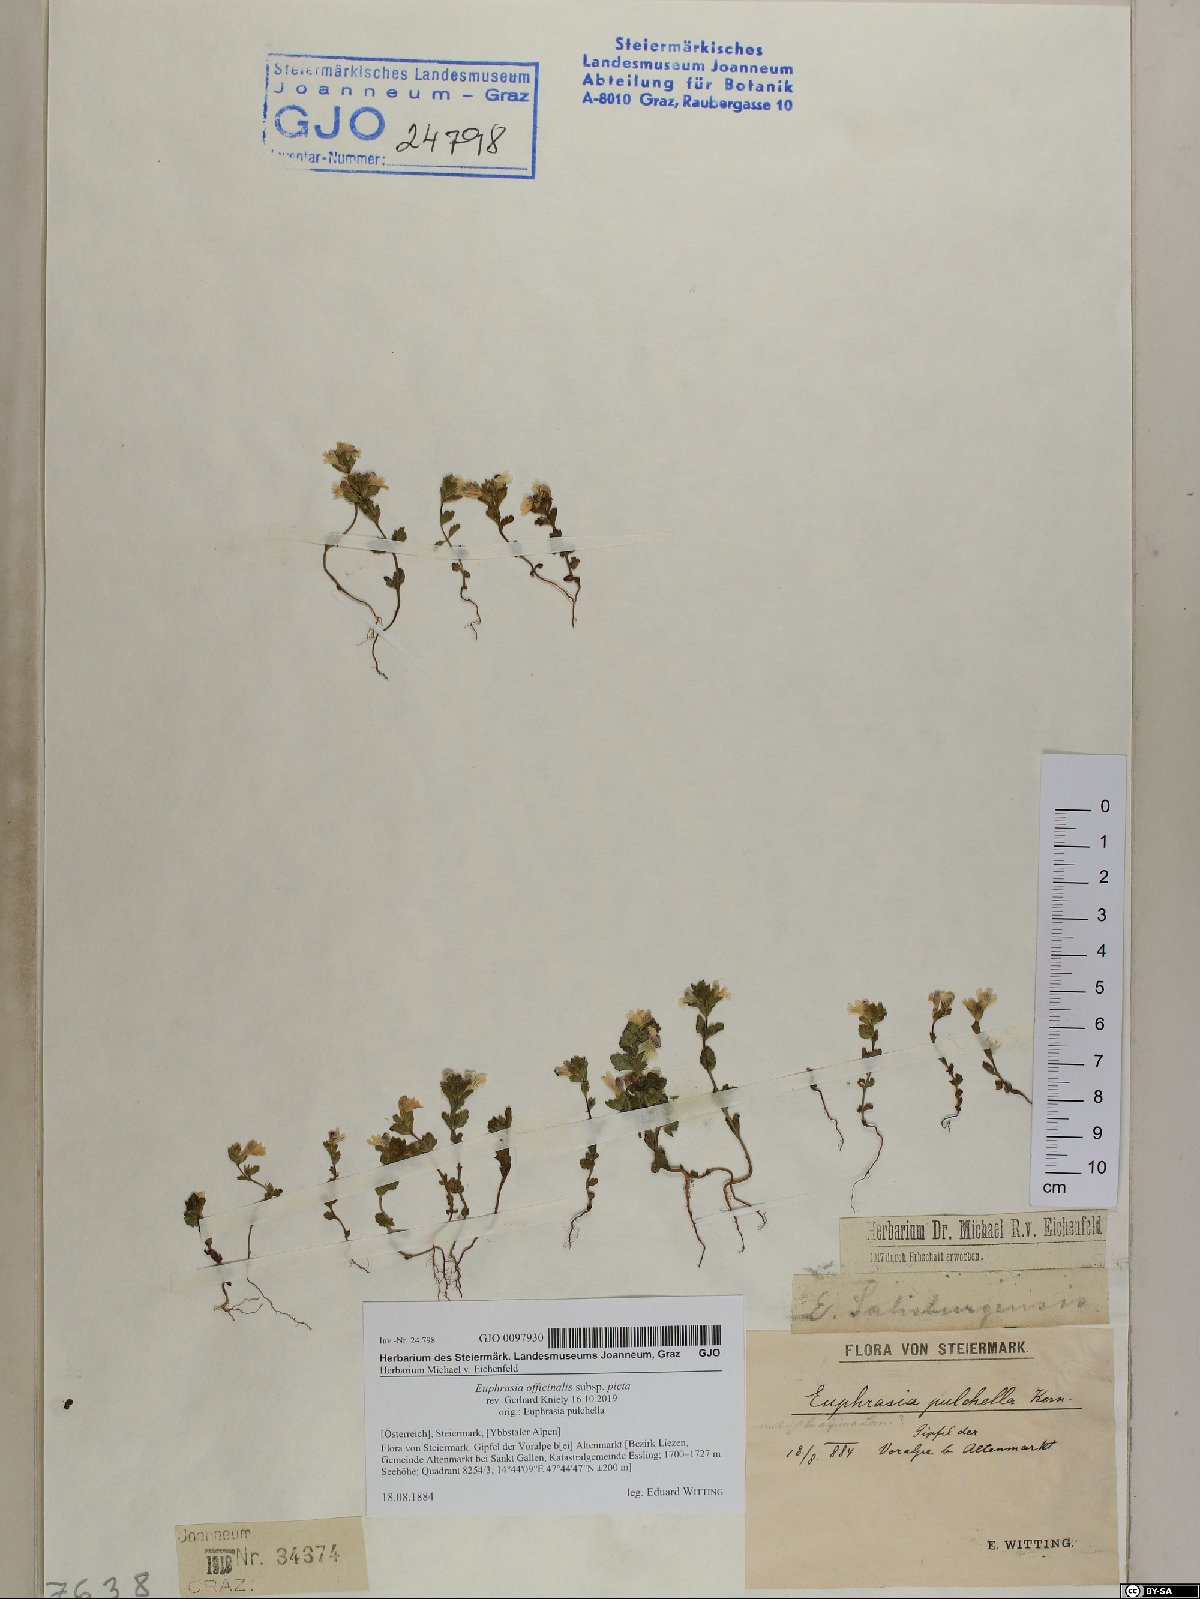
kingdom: Plantae
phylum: Tracheophyta
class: Magnoliopsida
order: Lamiales
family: Orobanchaceae
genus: Euphrasia
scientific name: Euphrasia officinalis
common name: Eyebright
